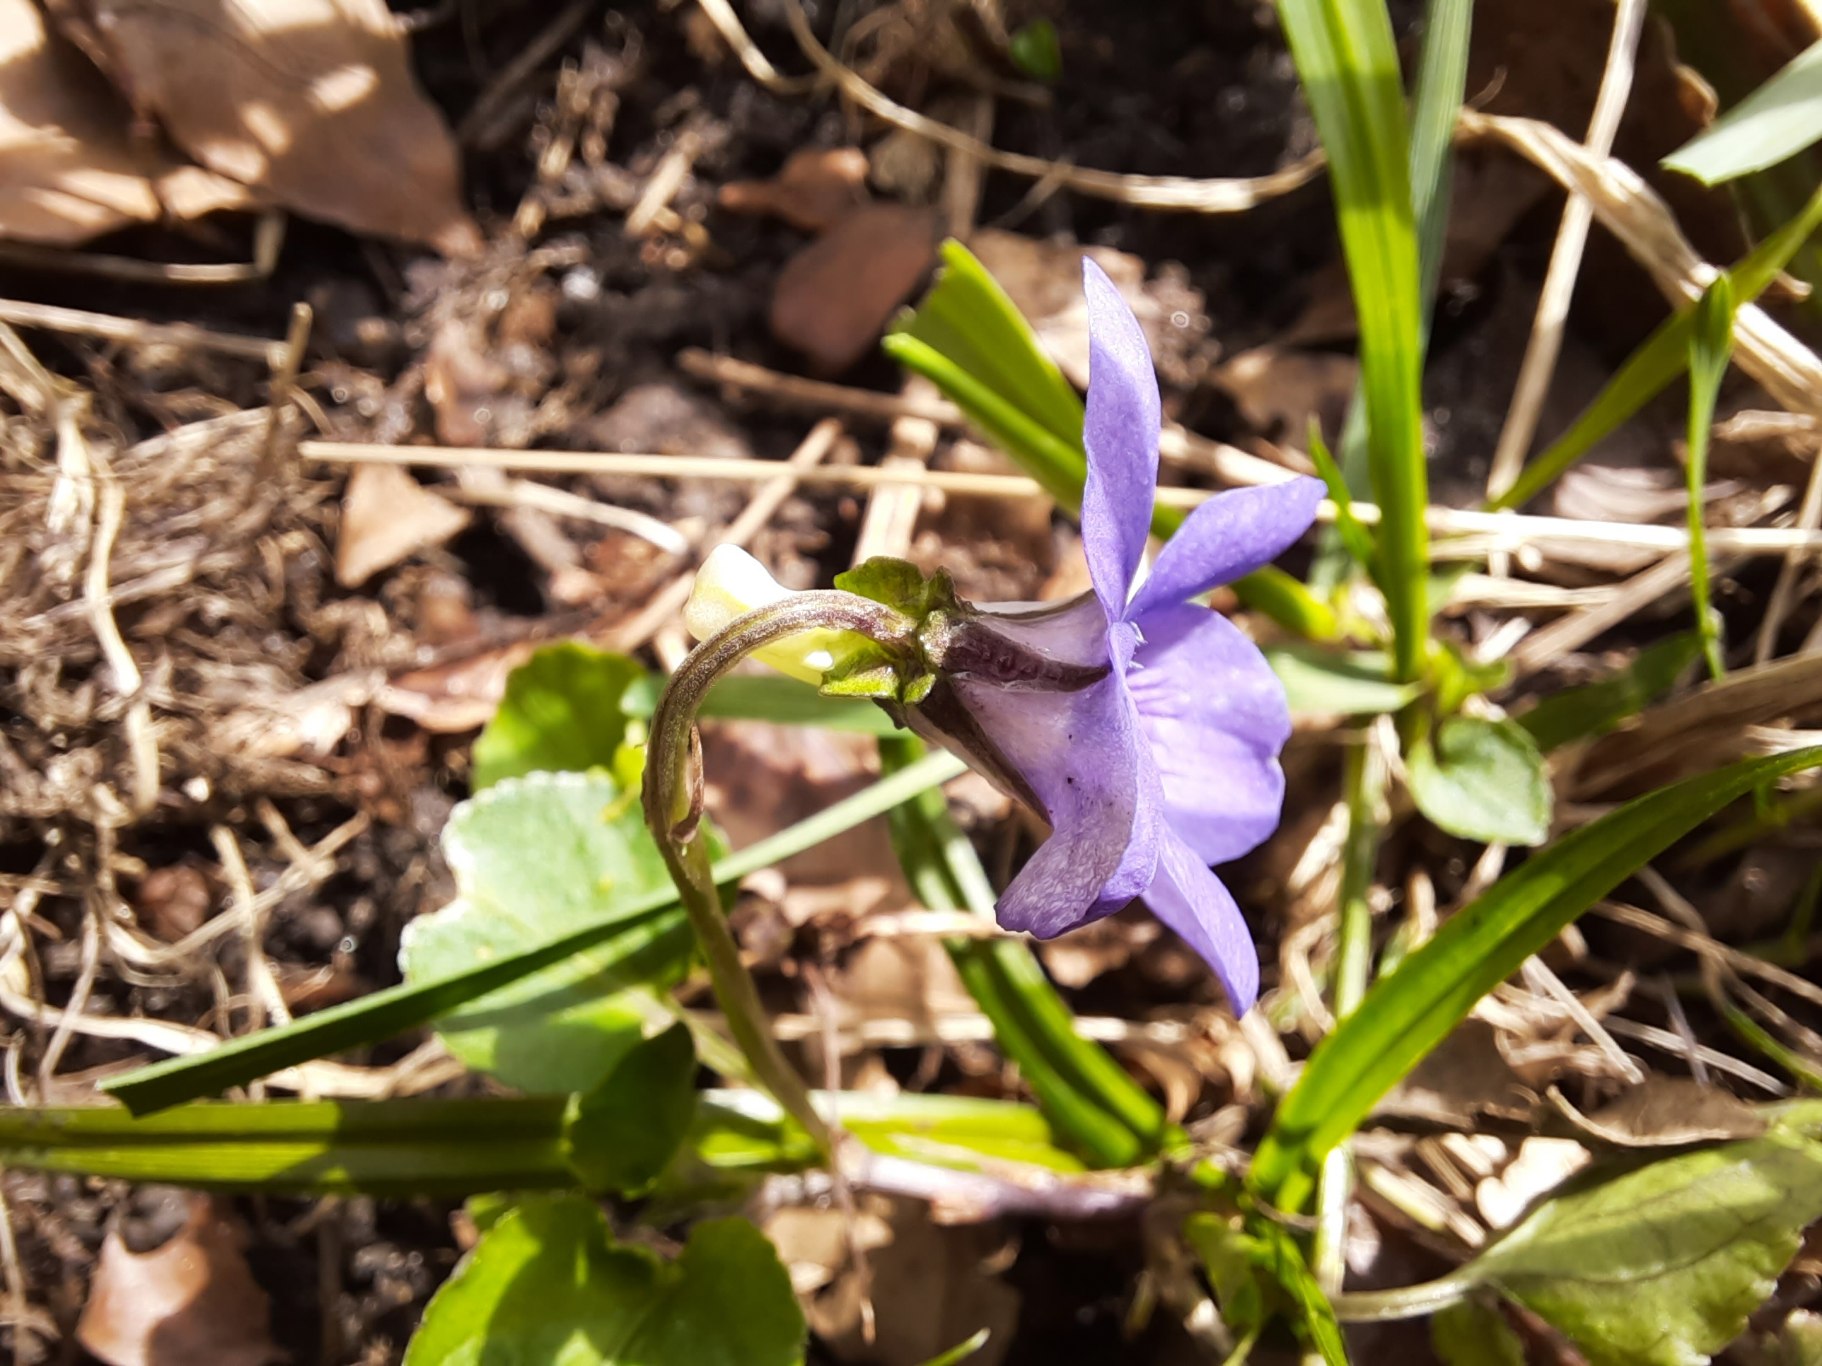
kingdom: Plantae
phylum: Tracheophyta
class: Magnoliopsida
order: Malpighiales
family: Violaceae
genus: Viola
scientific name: Viola riviniana
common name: Krat-viol
